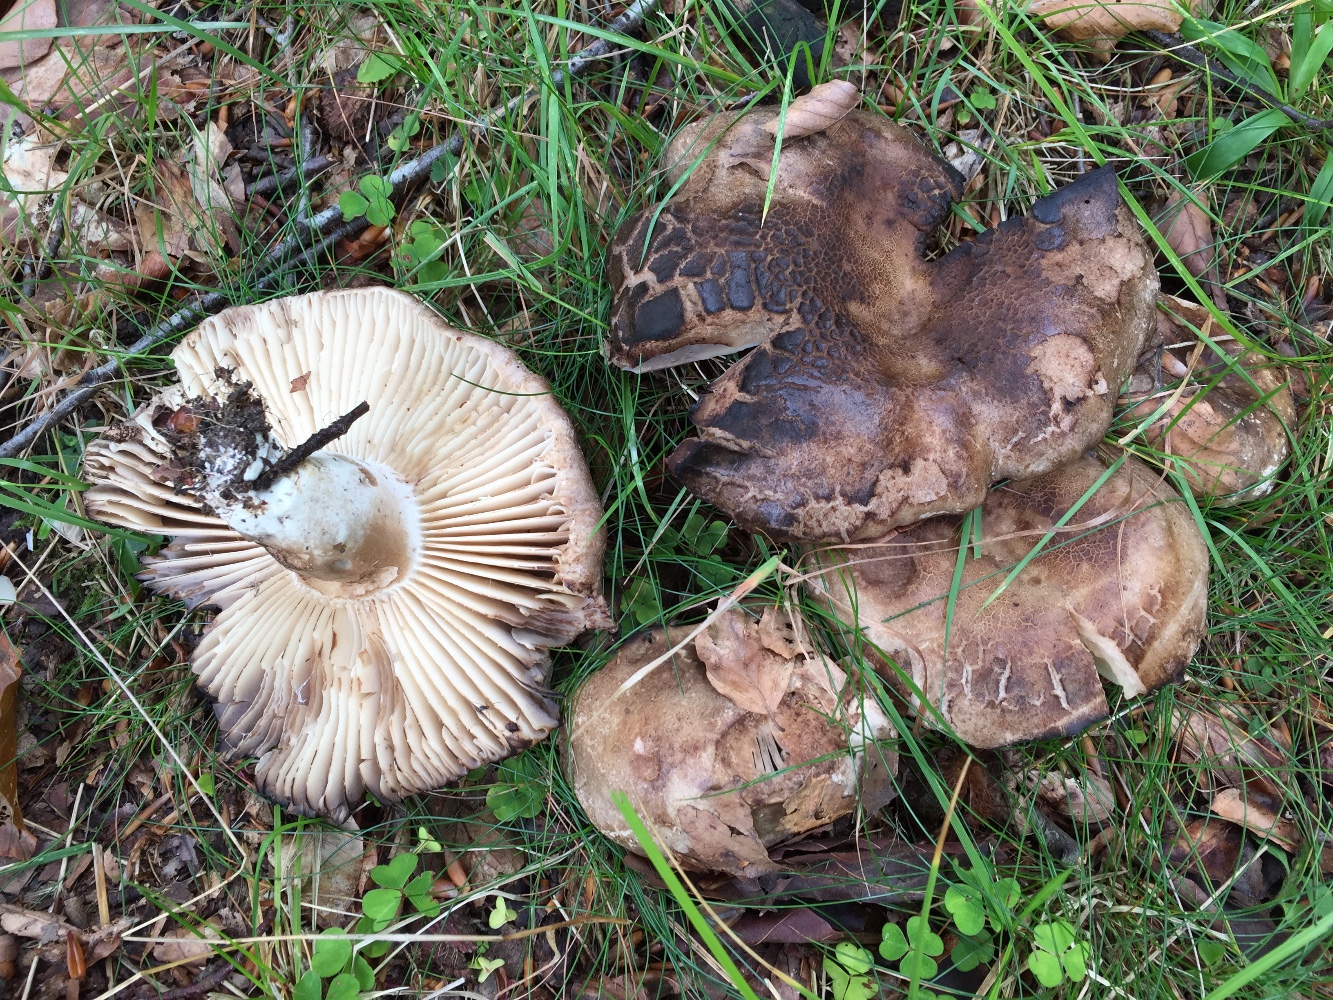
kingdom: Fungi
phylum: Basidiomycota
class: Agaricomycetes
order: Russulales
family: Russulaceae
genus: Russula
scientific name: Russula adusta
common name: sværtende skørhat
